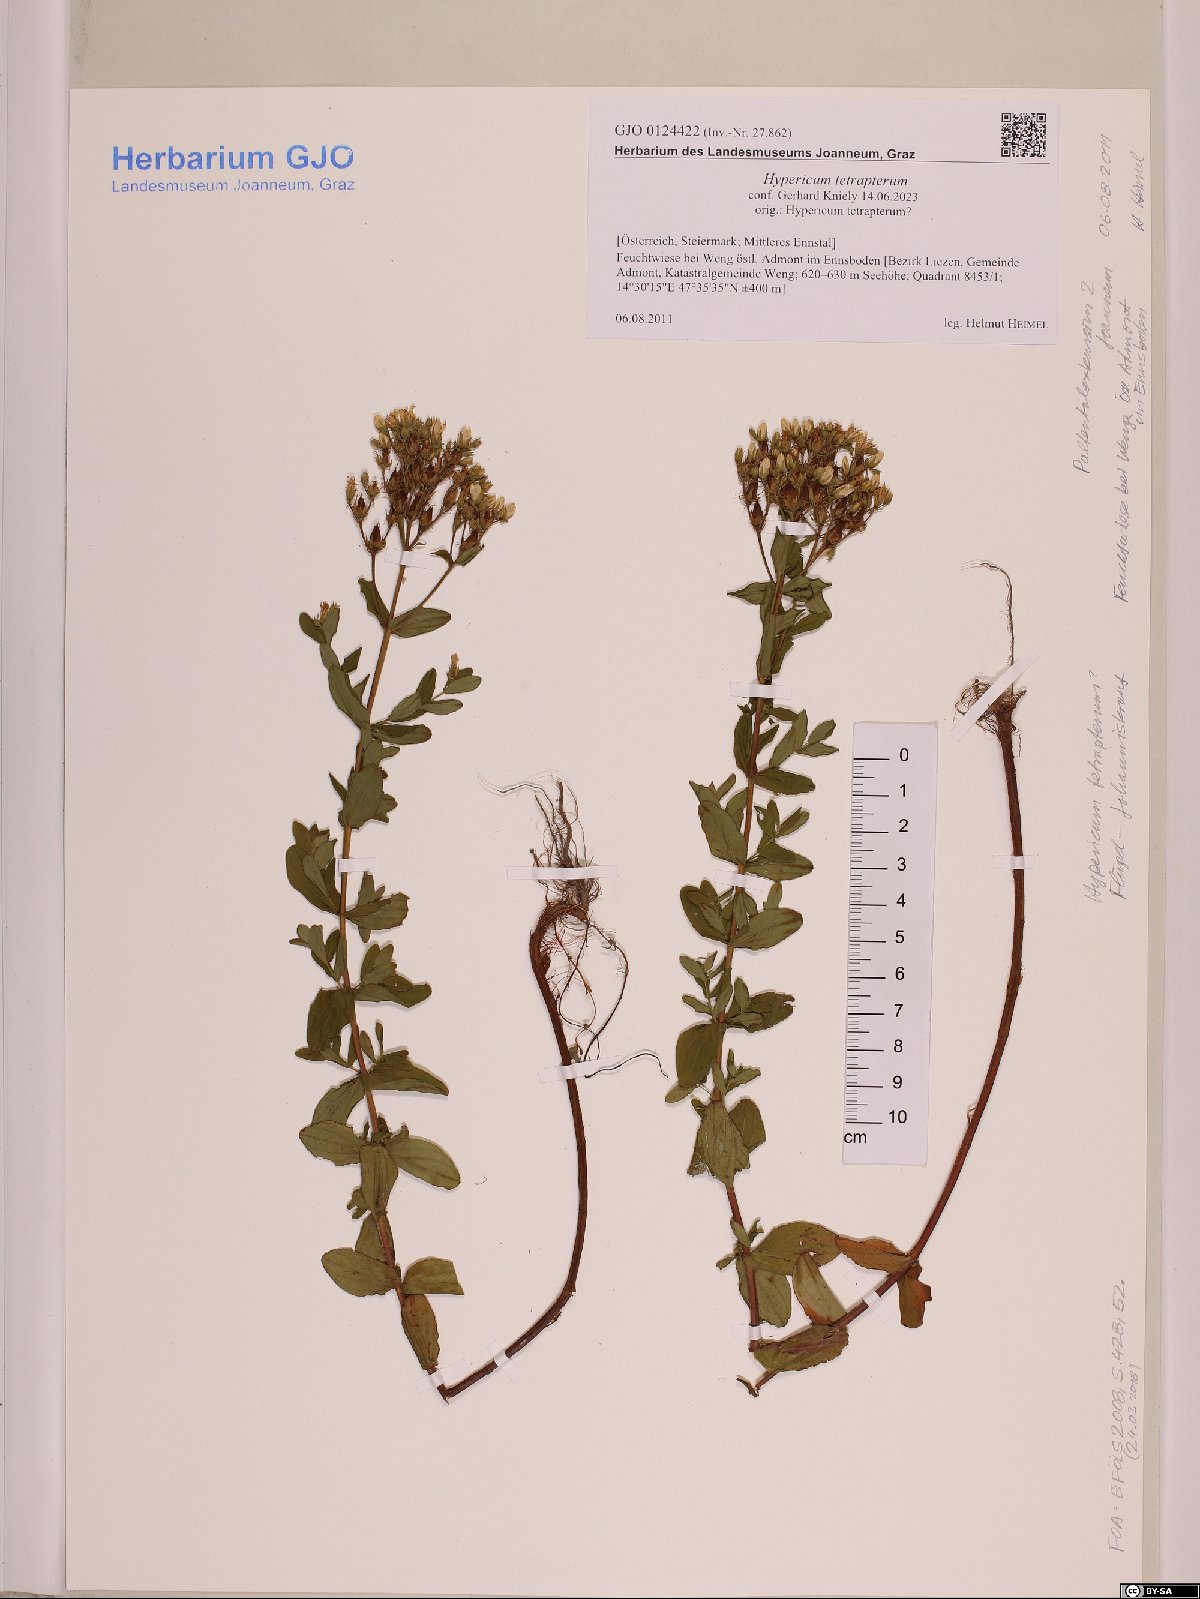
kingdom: Plantae
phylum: Tracheophyta
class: Magnoliopsida
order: Malpighiales
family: Hypericaceae
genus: Hypericum
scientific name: Hypericum tetrapterum
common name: Square-stalked st. john's-wort
